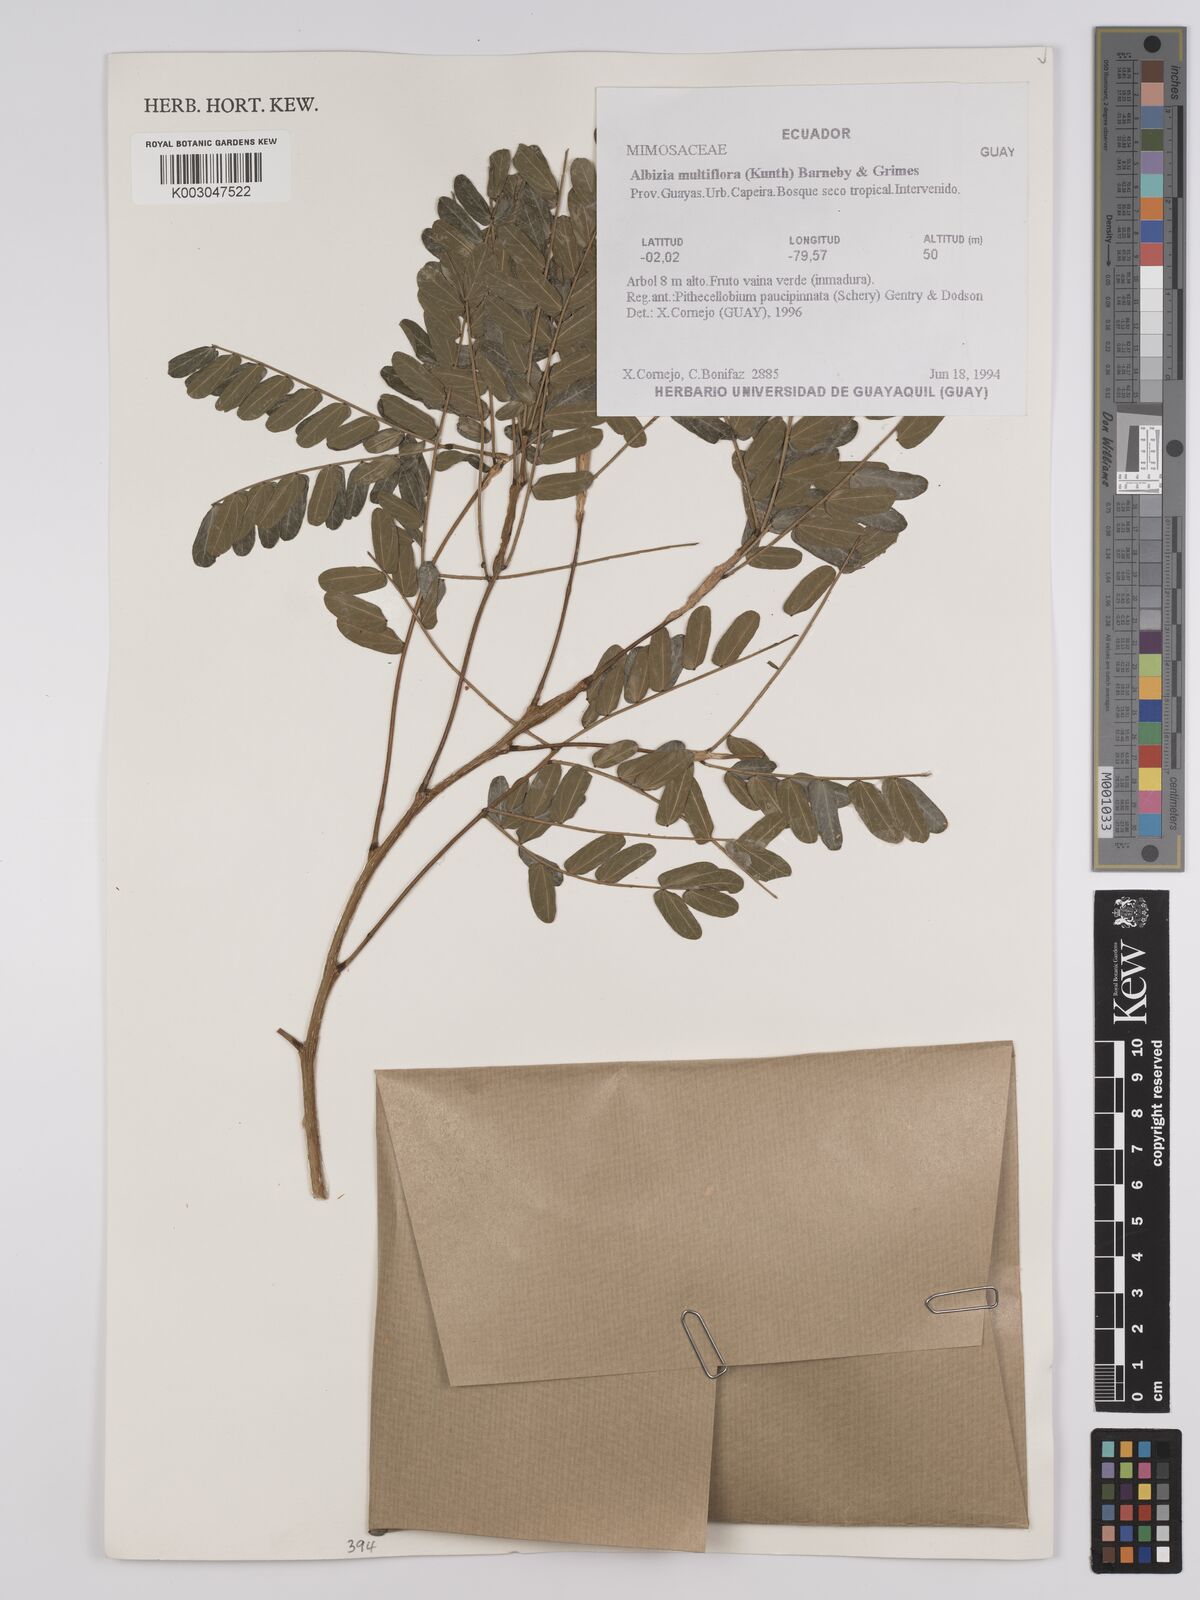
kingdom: Plantae
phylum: Tracheophyta
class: Magnoliopsida
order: Fabales
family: Fabaceae
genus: Albizia
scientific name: Albizia multiflora
